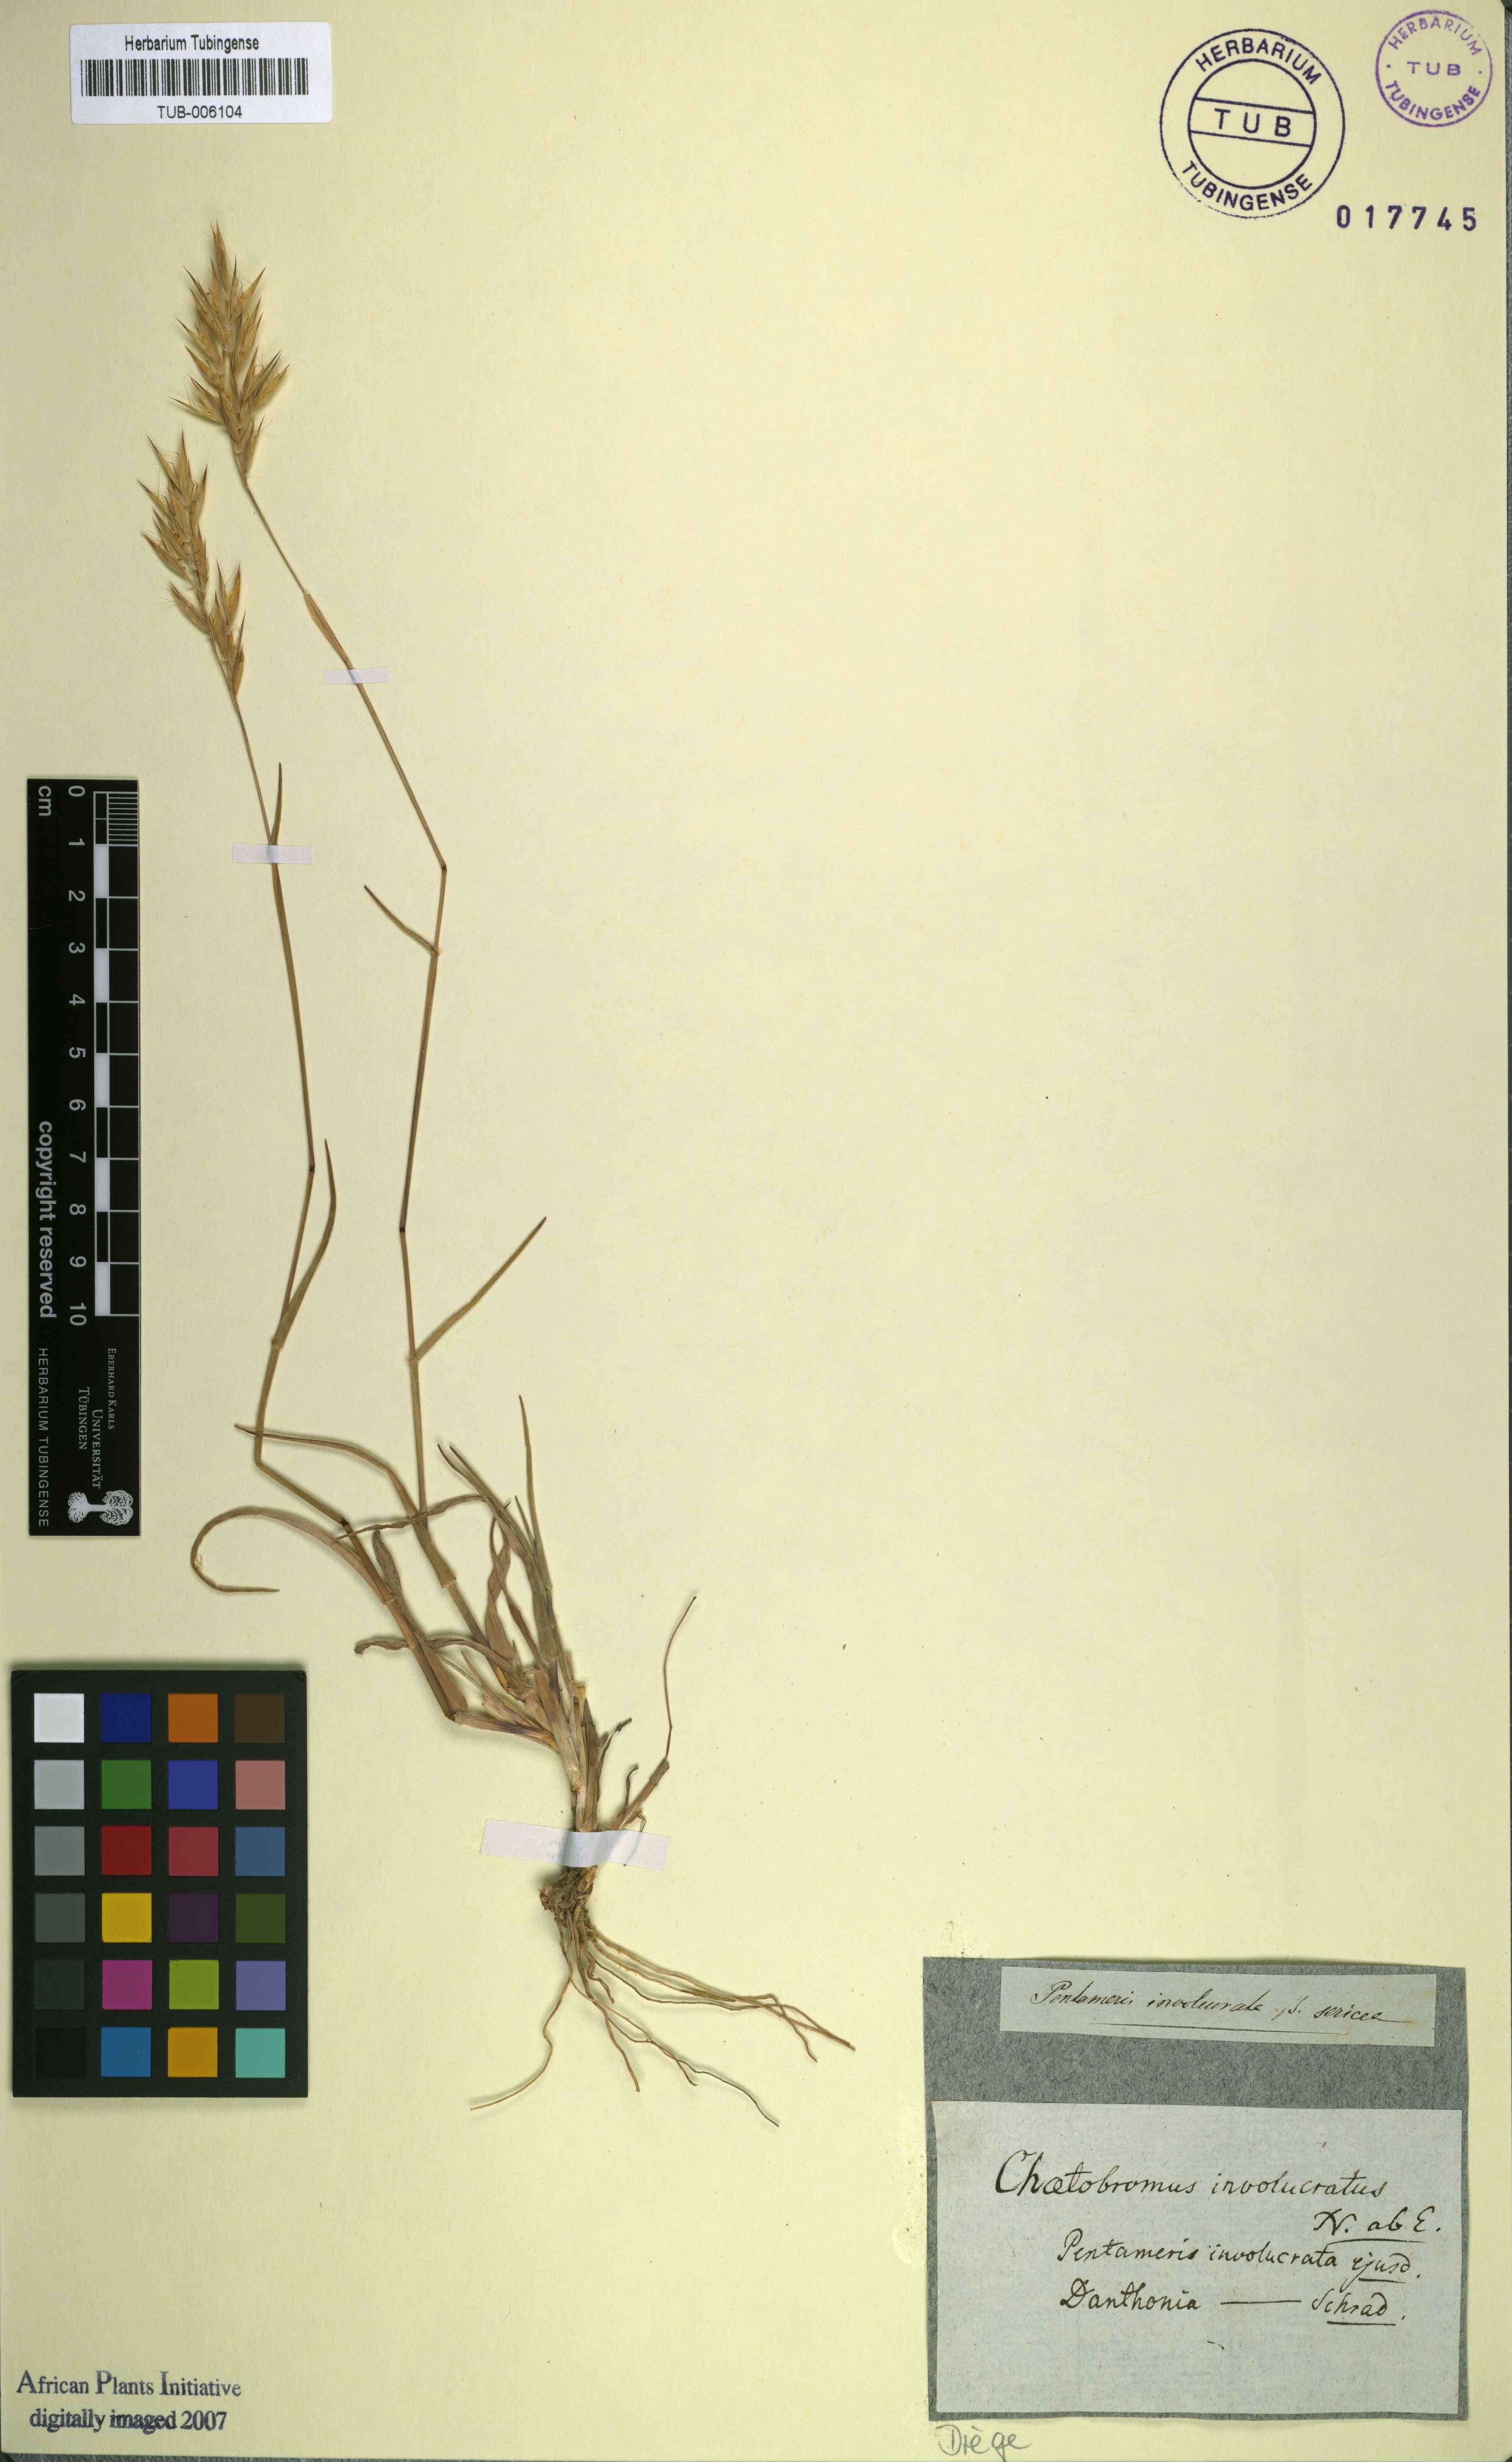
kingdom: Plantae
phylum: Tracheophyta
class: Liliopsida
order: Poales
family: Poaceae
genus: Chaetobromus
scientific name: Chaetobromus involucratus
